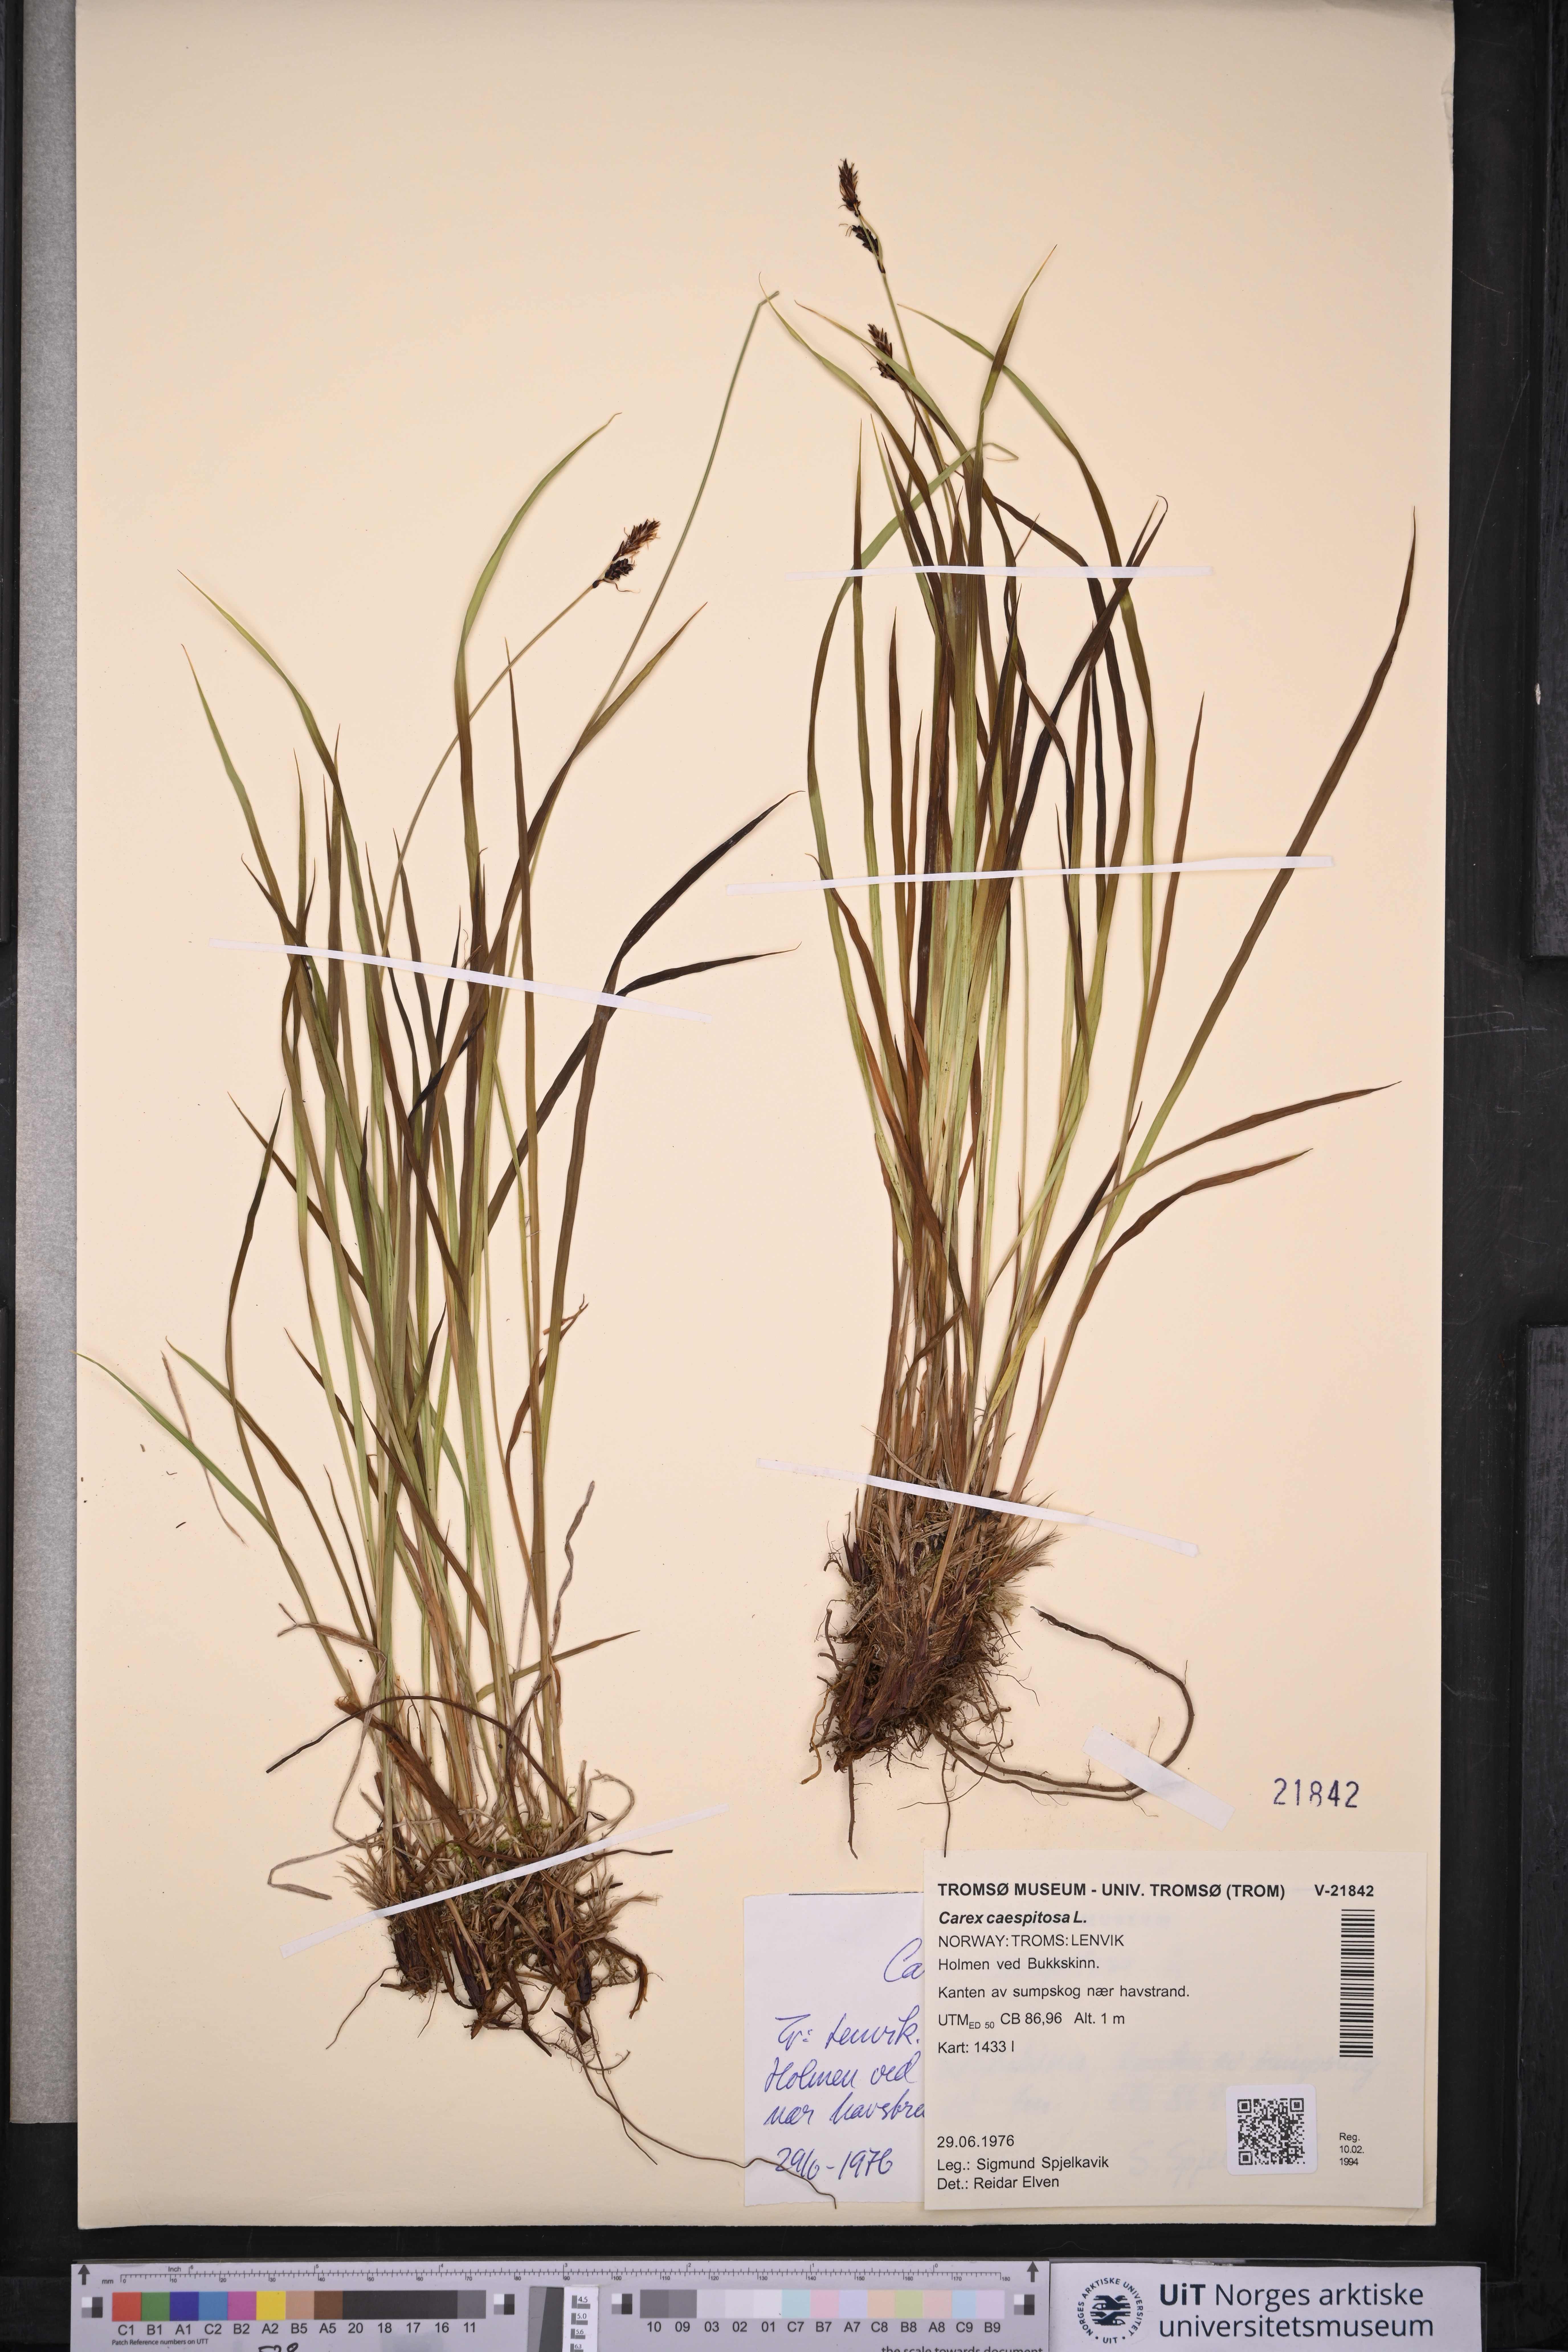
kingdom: Plantae
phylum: Tracheophyta
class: Liliopsida
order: Poales
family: Cyperaceae
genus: Carex
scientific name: Carex cespitosa
